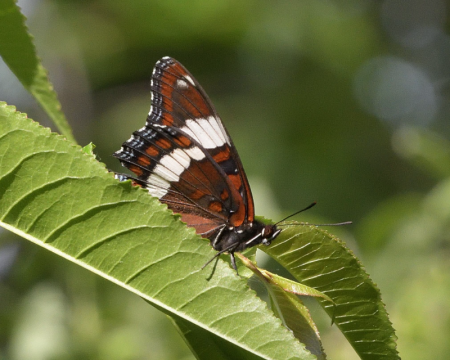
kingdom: Animalia
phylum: Arthropoda
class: Insecta
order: Lepidoptera
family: Nymphalidae
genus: Limenitis
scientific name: Limenitis arthemis
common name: Red-spotted Admiral
